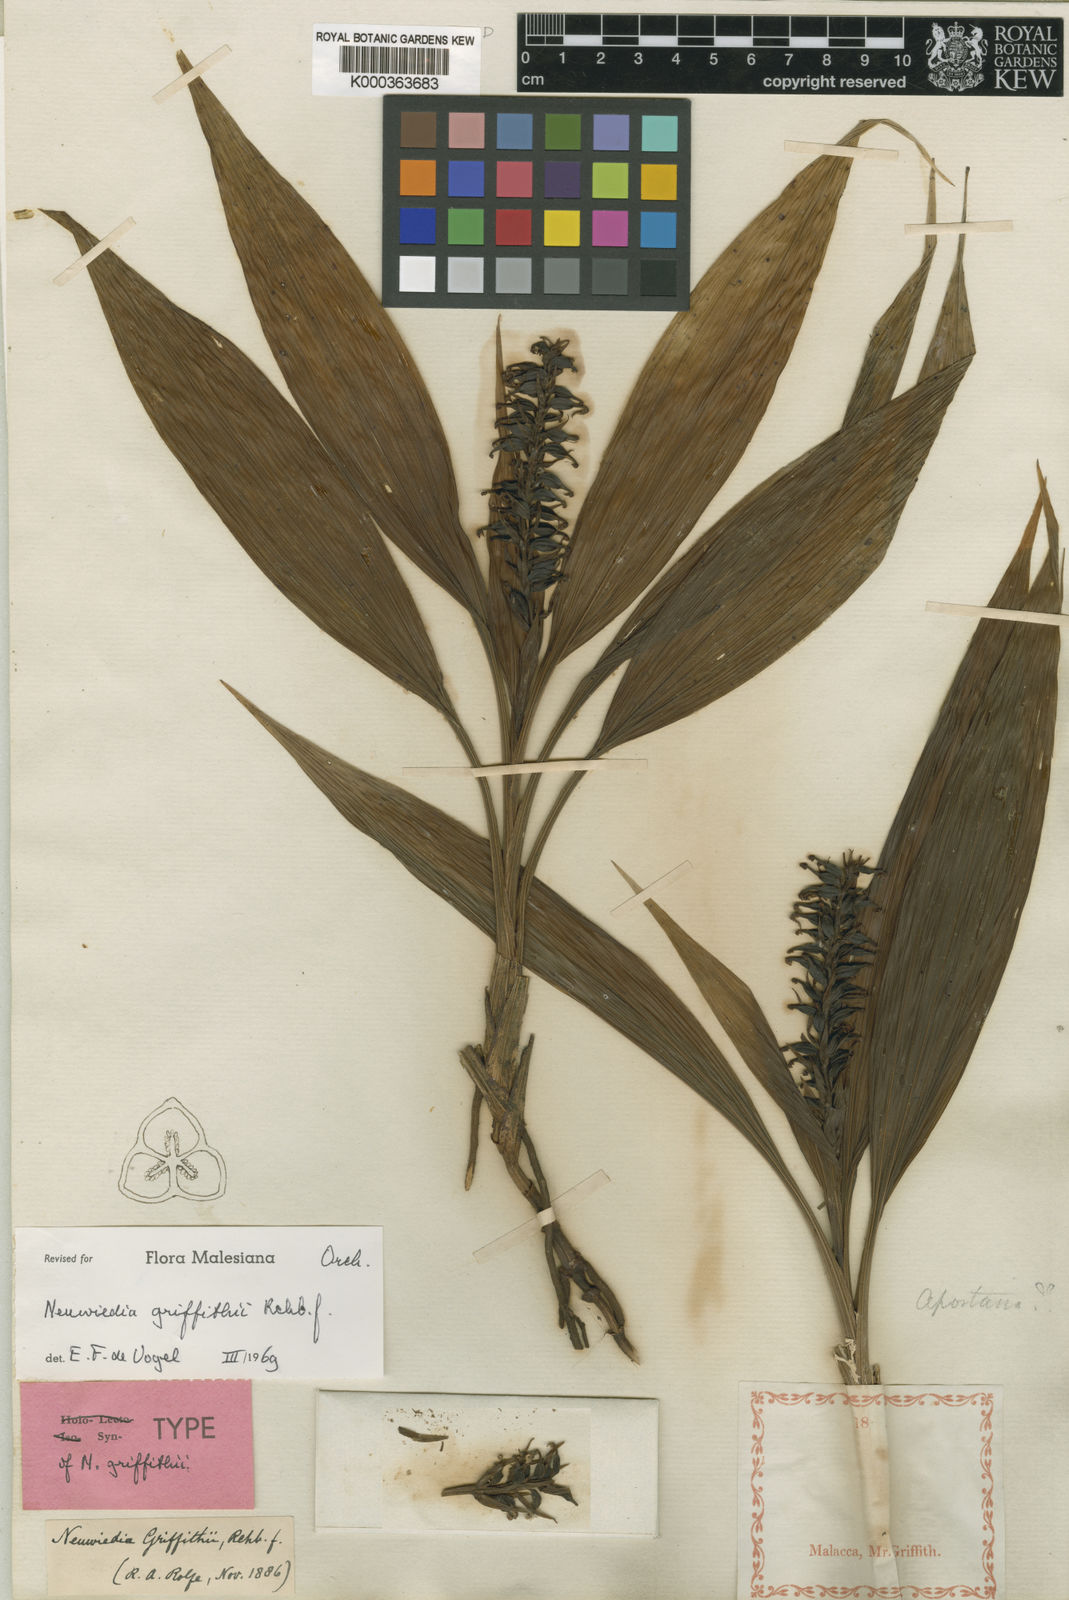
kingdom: Plantae
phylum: Tracheophyta
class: Liliopsida
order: Asparagales
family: Orchidaceae
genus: Neuwiedia
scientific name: Neuwiedia griffithii
